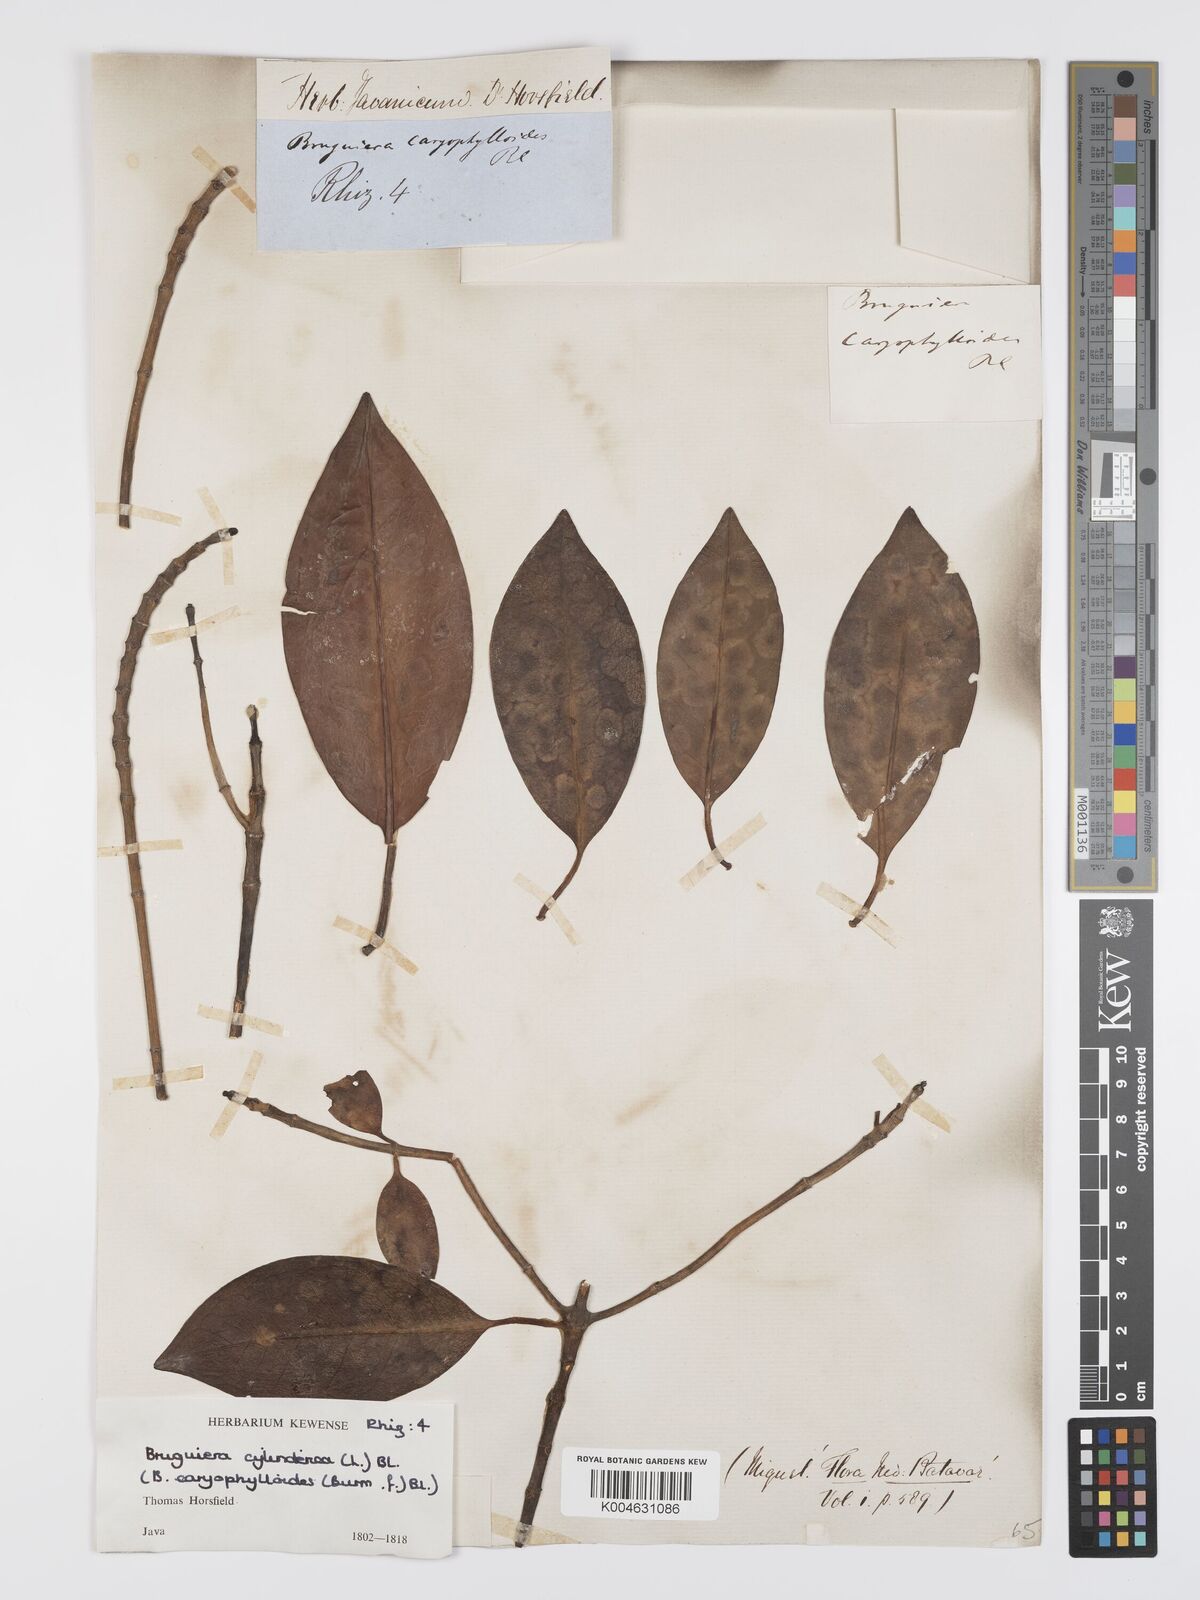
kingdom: Plantae
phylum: Tracheophyta
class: Magnoliopsida
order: Malpighiales
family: Rhizophoraceae
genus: Bruguiera
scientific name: Bruguiera cylindrica
